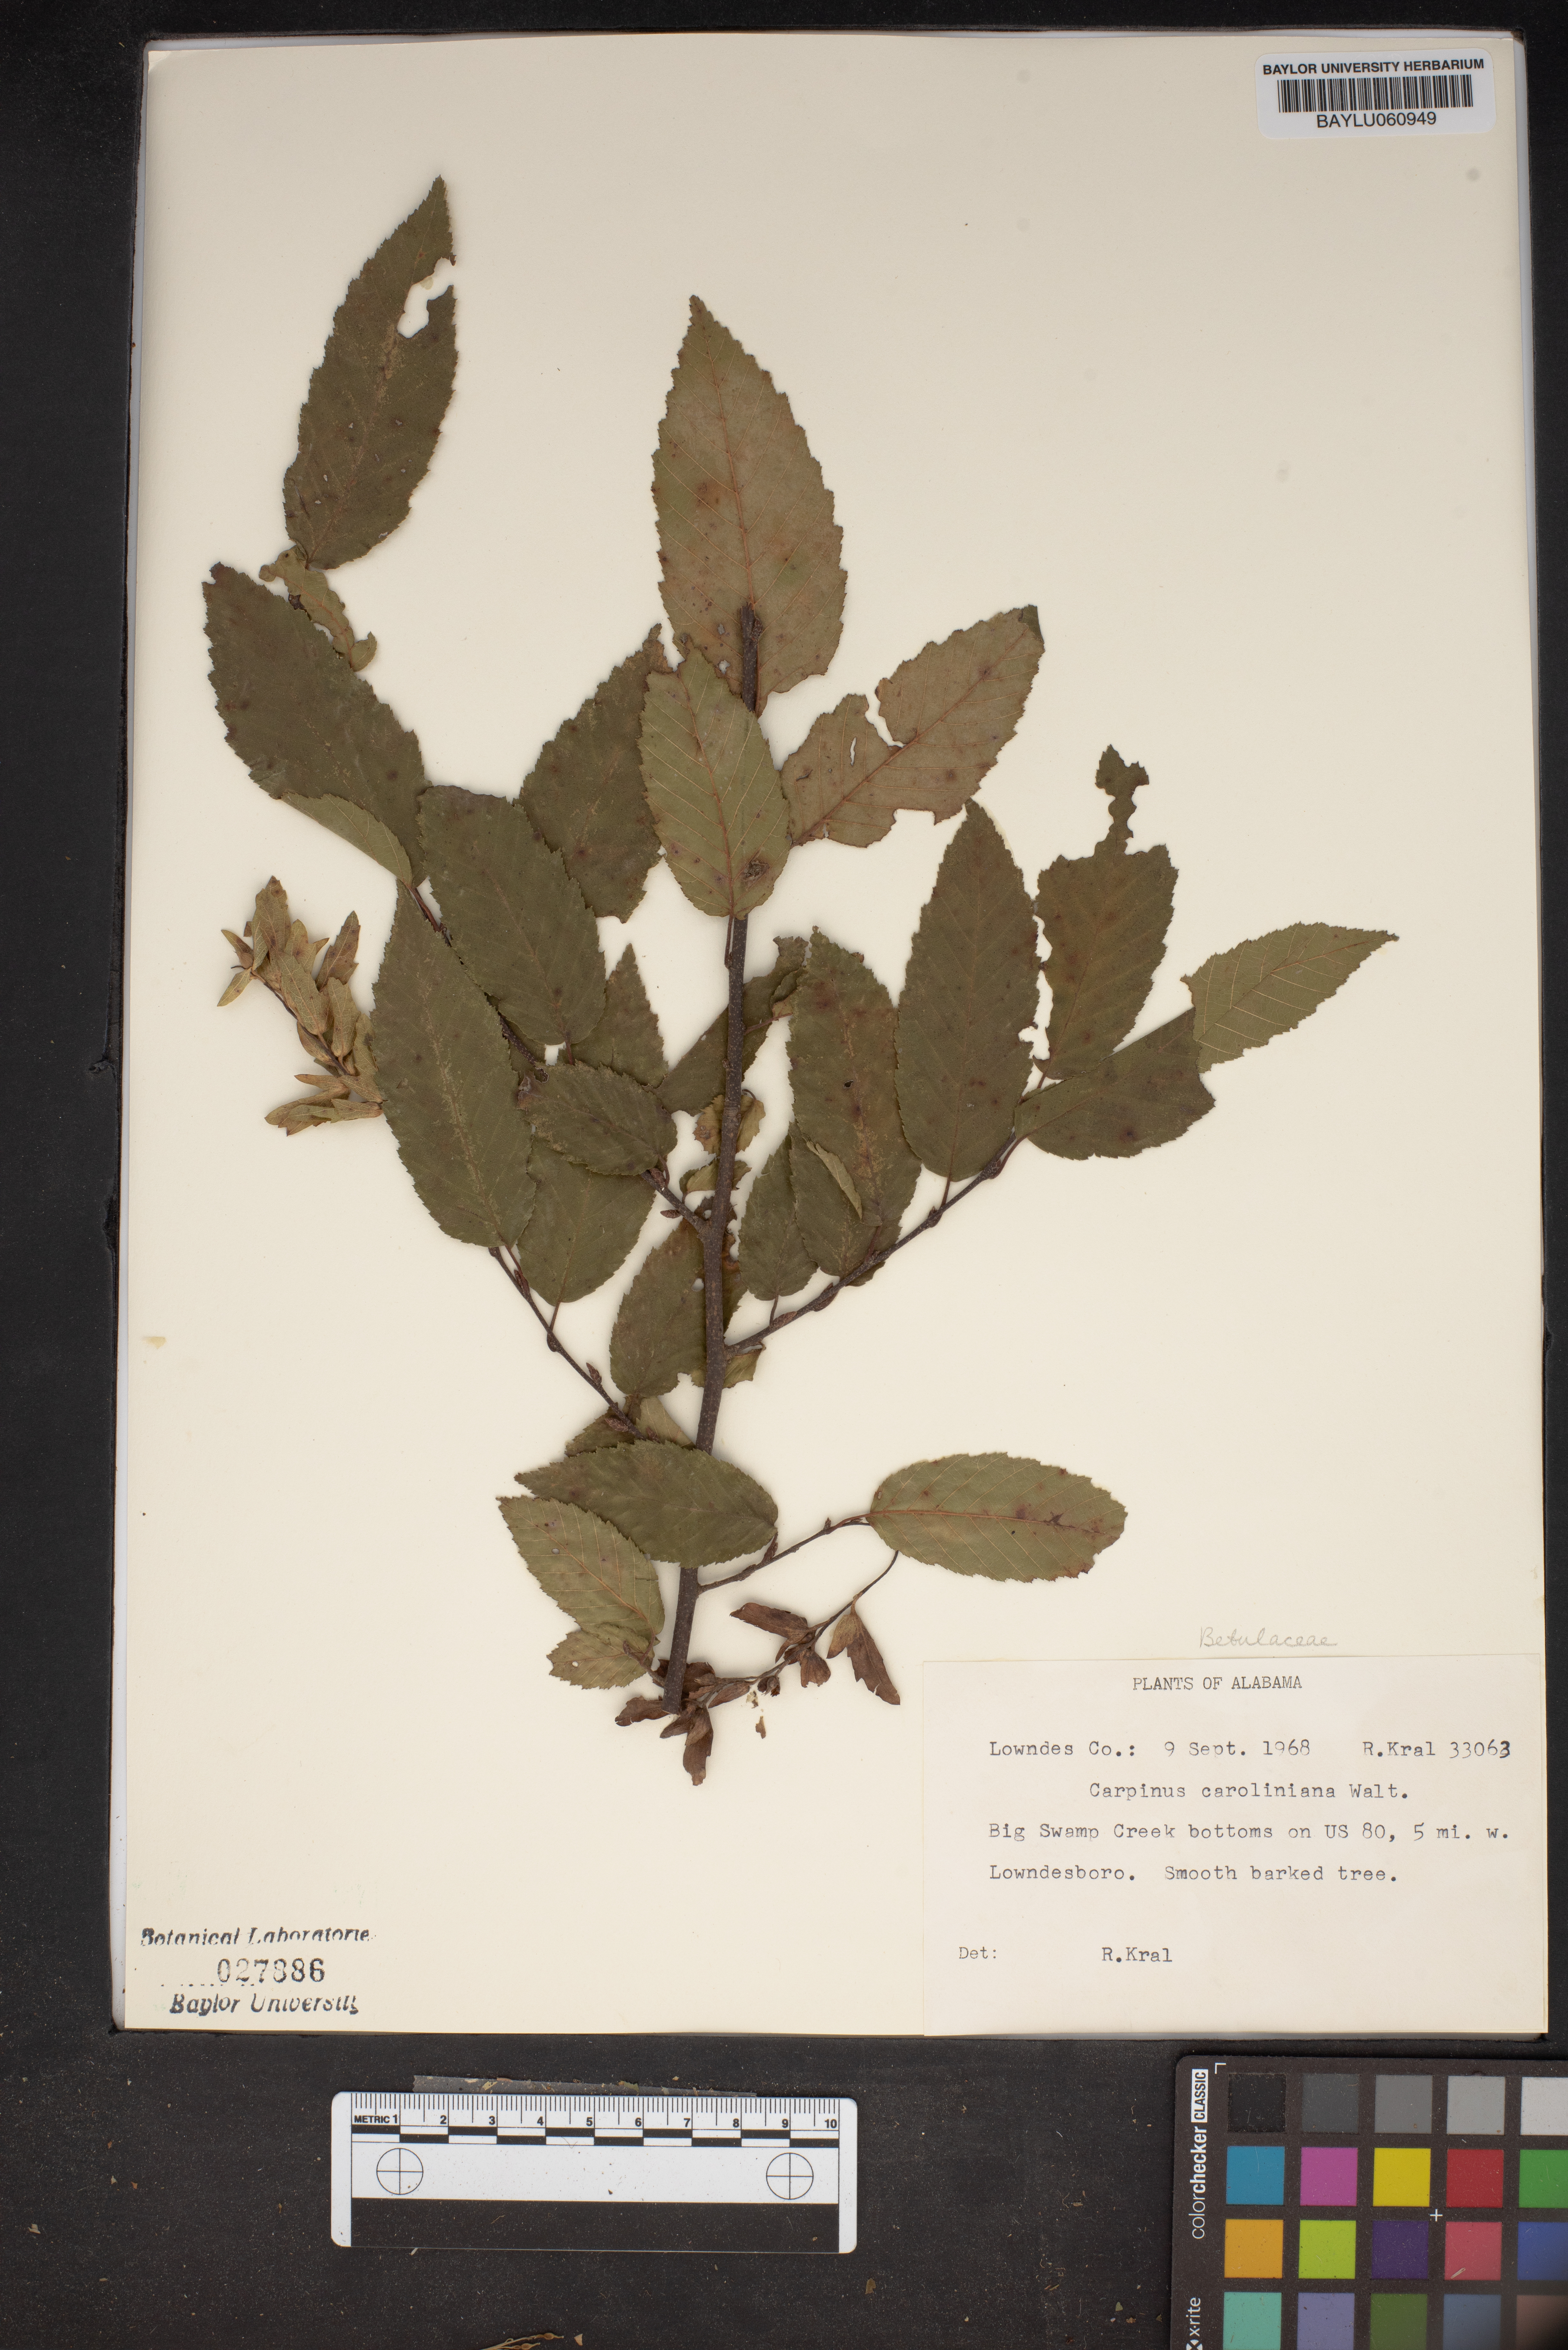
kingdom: Plantae
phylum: Tracheophyta
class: Magnoliopsida
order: Fagales
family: Betulaceae
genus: Carpinus
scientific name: Carpinus caroliniana
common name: American hornbeam
